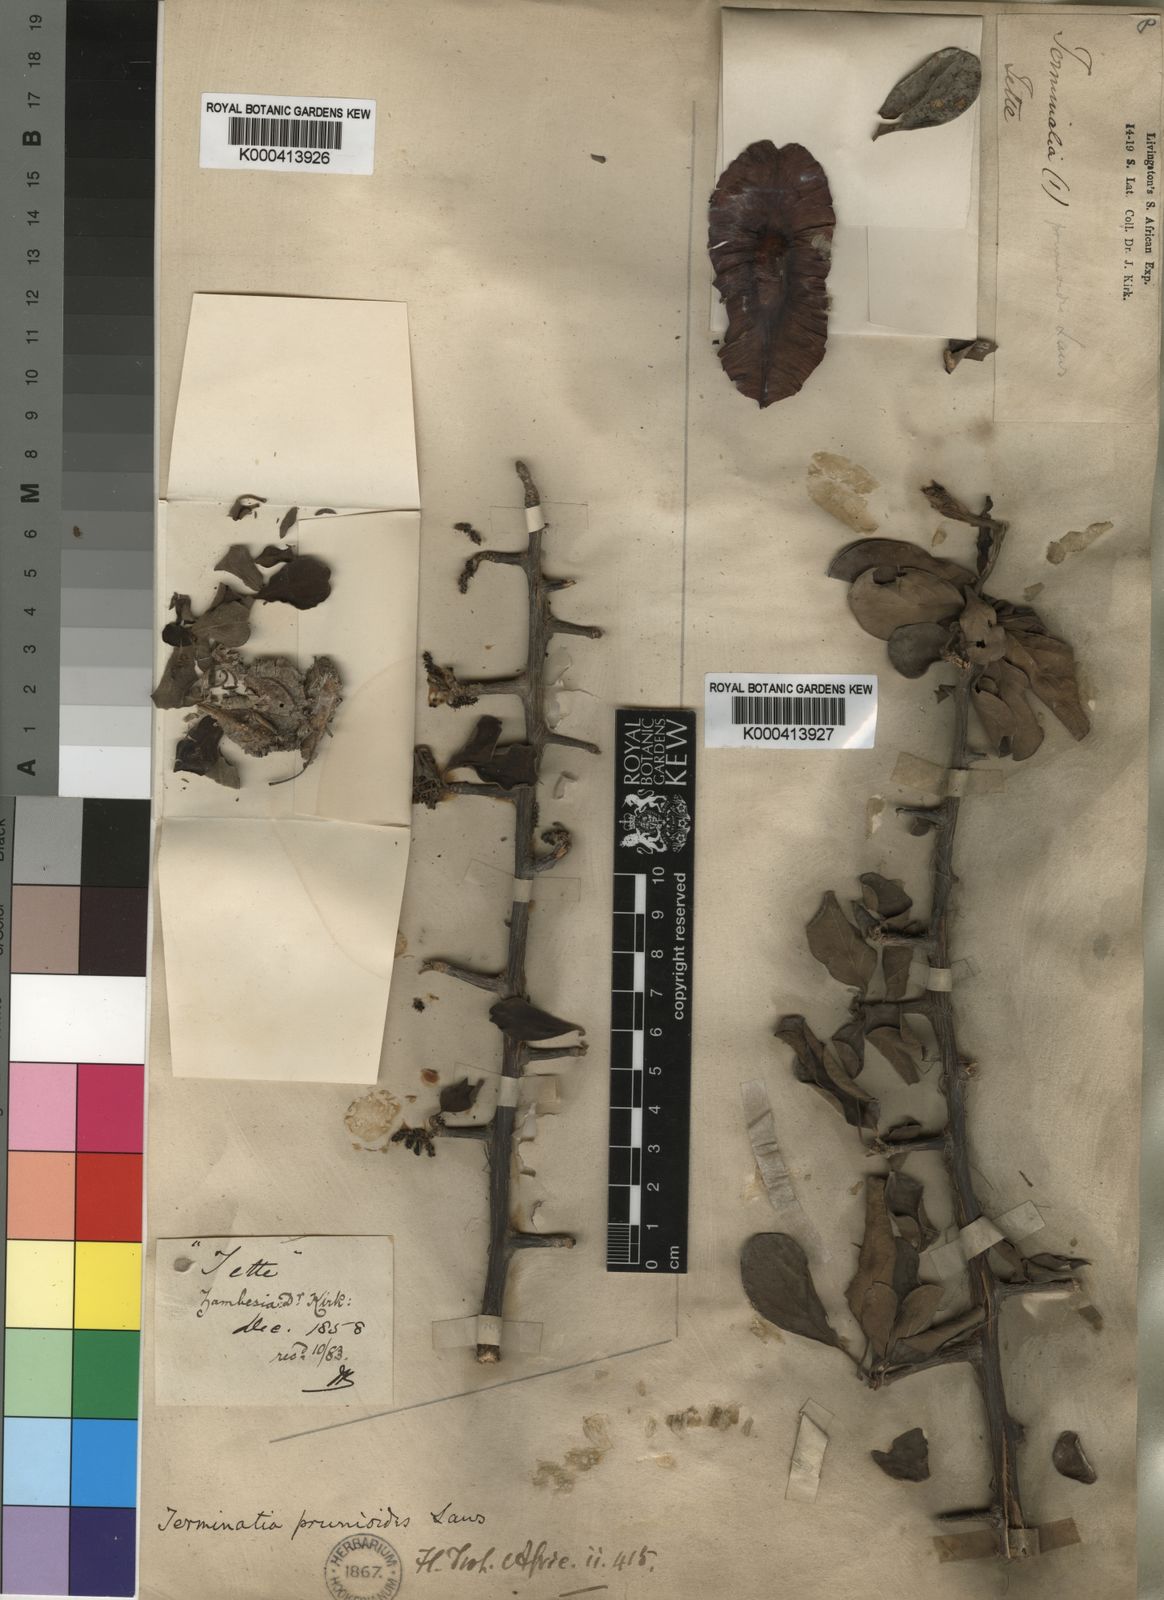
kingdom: Plantae
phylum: Tracheophyta
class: Magnoliopsida
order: Myrtales
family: Combretaceae
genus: Terminalia
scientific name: Terminalia prunioides
